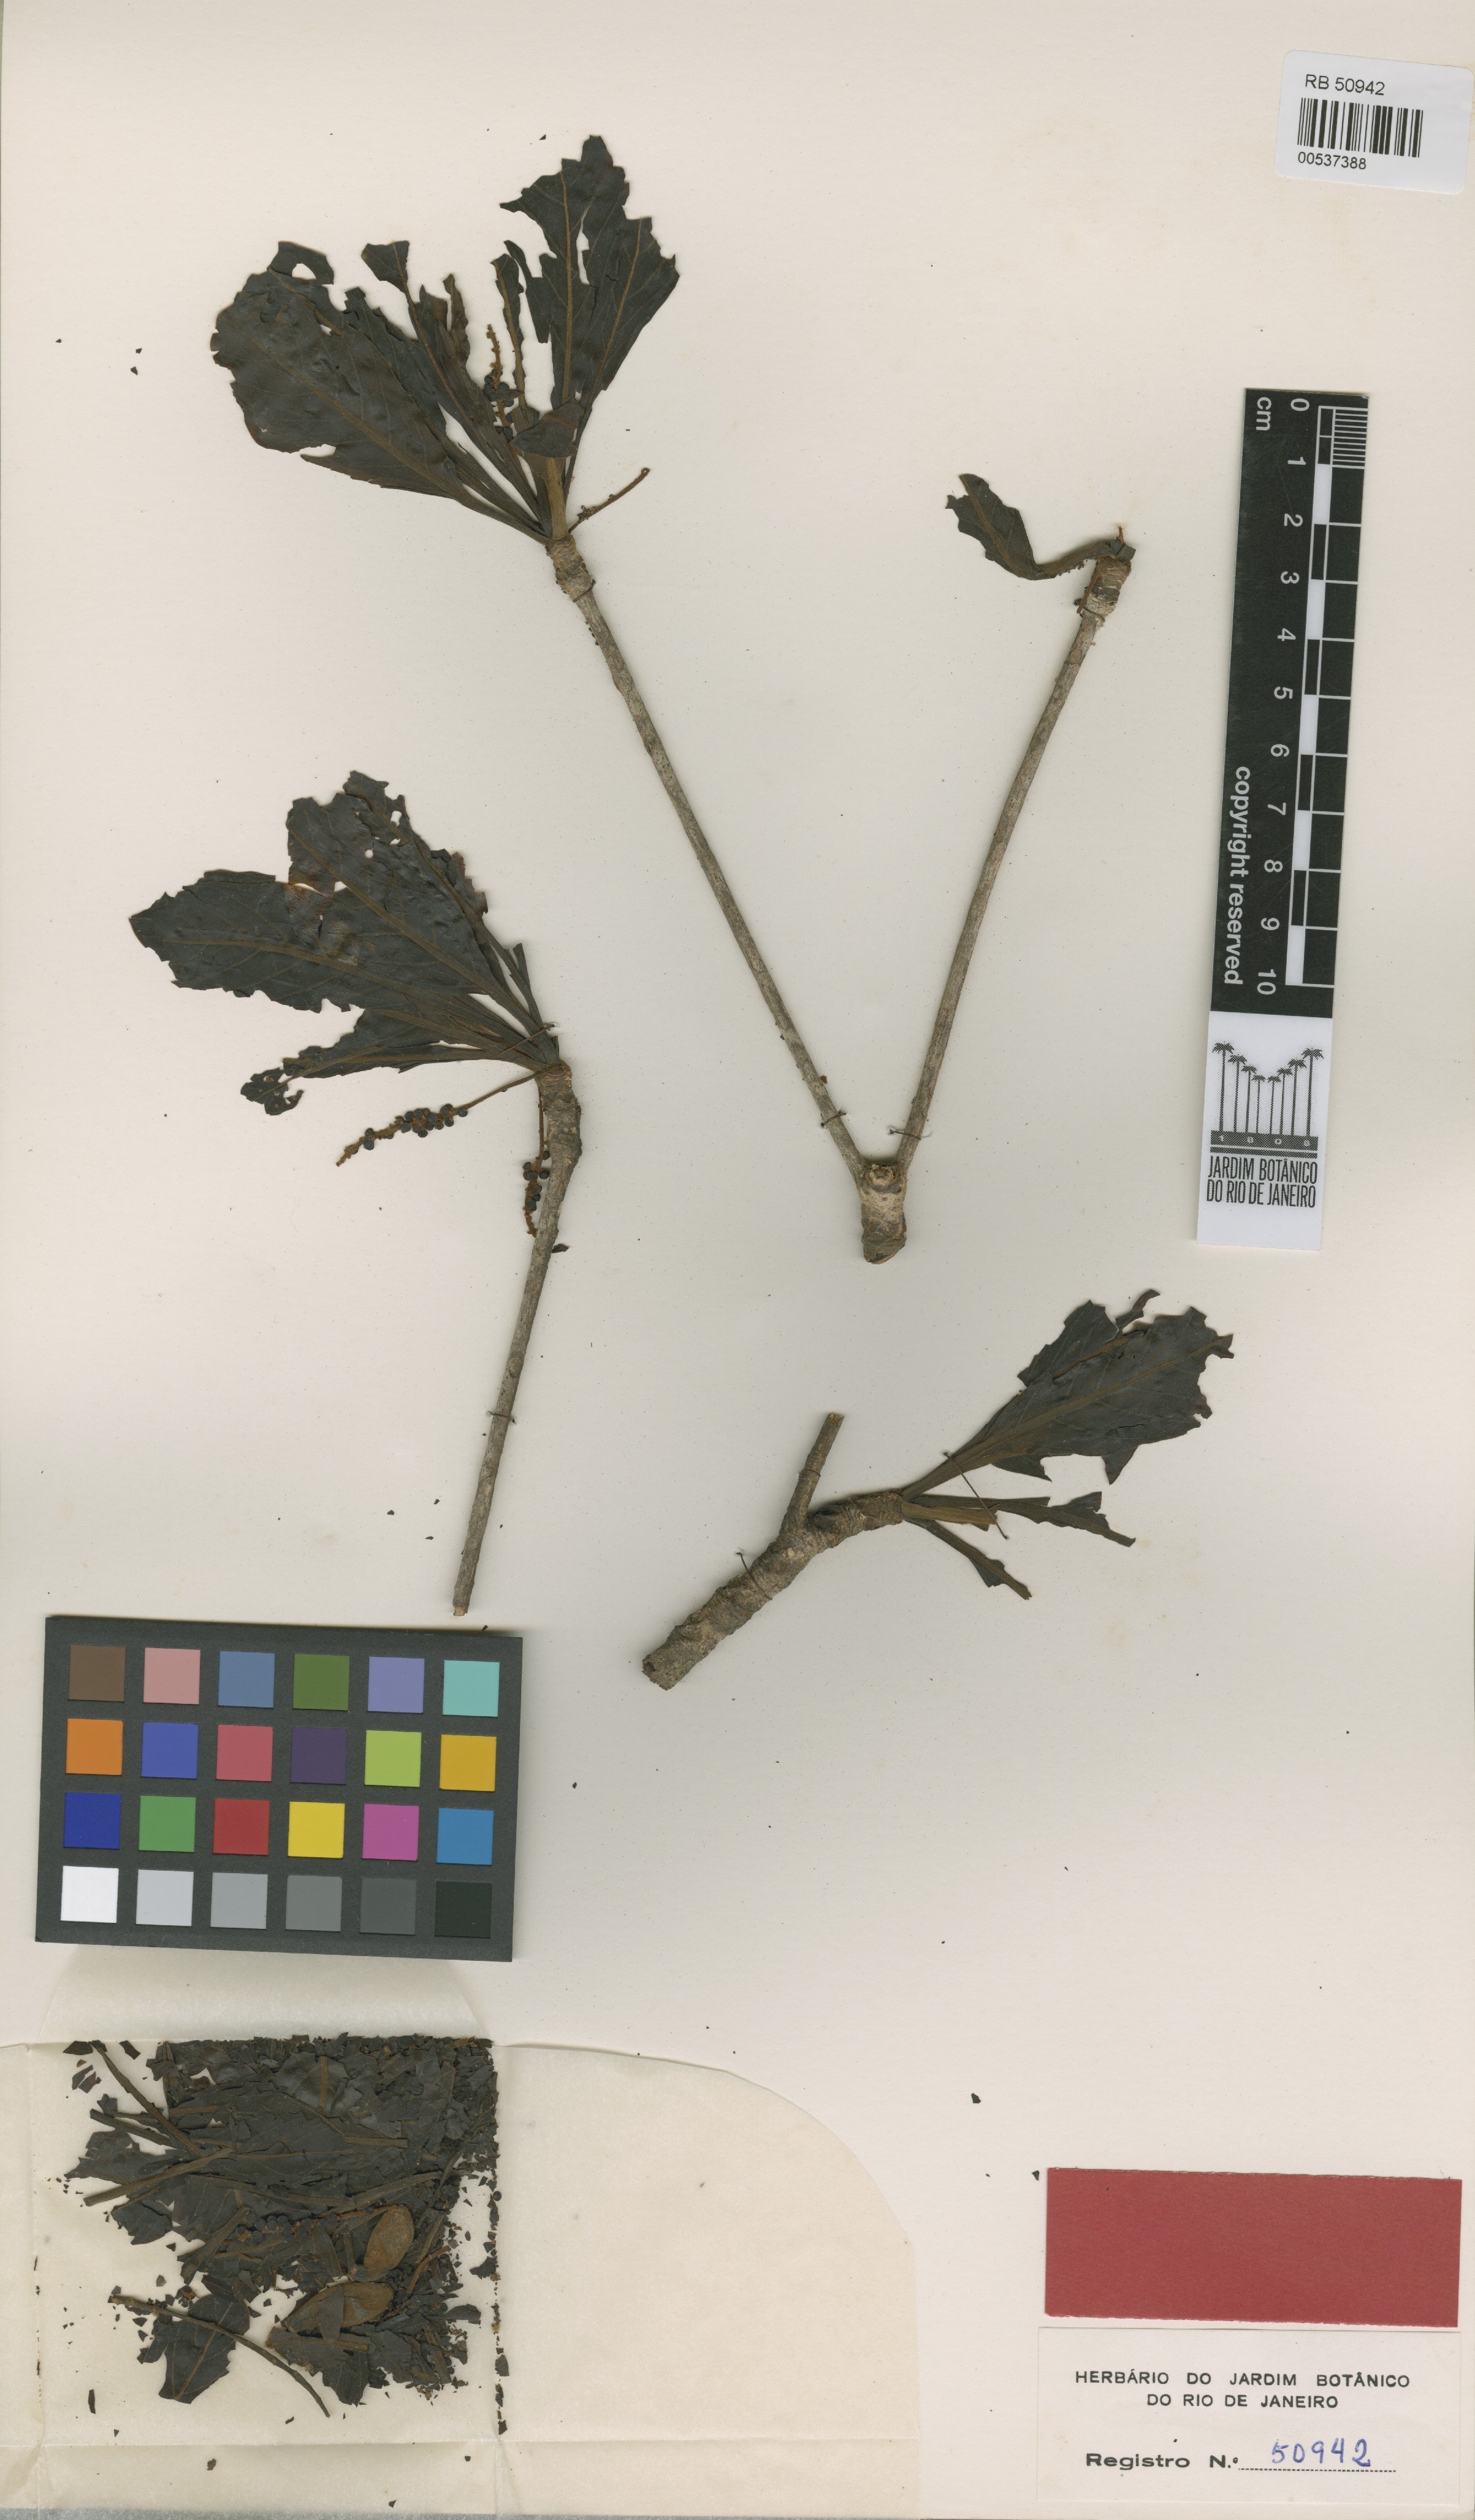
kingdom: Plantae
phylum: Tracheophyta
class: Magnoliopsida
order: Myrtales
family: Combretaceae
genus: Terminalia
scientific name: Terminalia grandis
